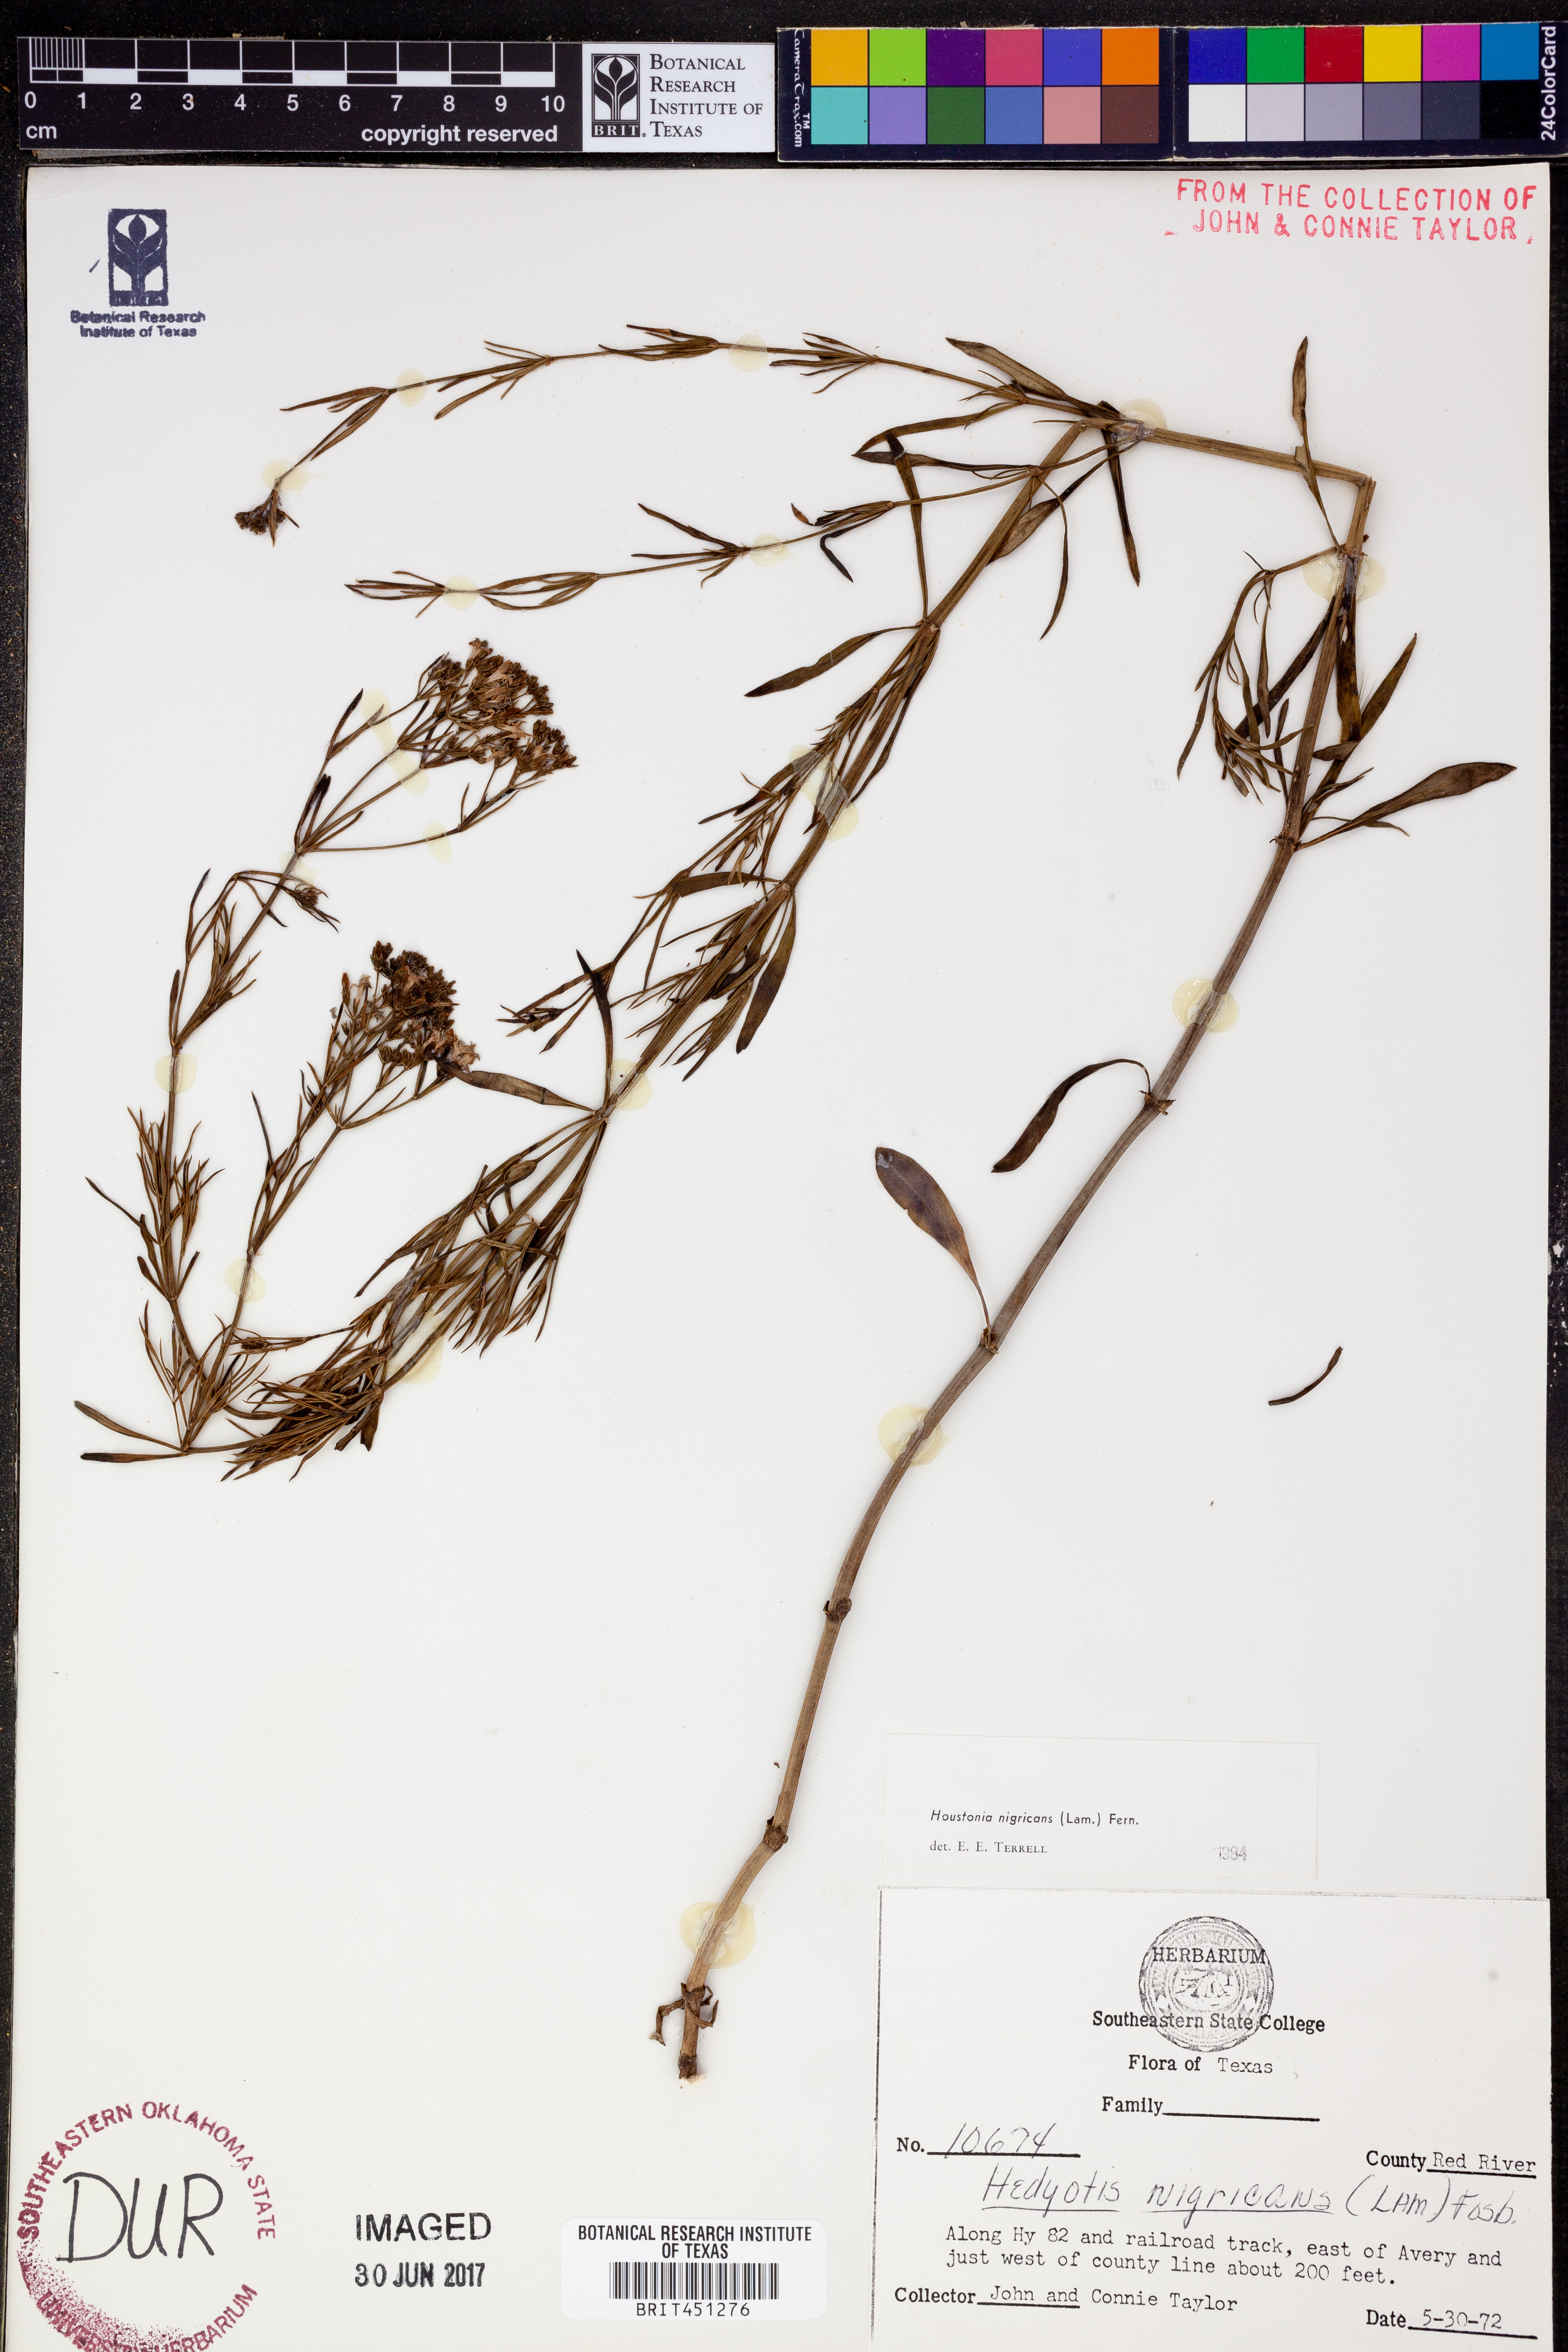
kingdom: Plantae
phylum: Tracheophyta
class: Magnoliopsida
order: Gentianales
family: Rubiaceae
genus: Stenaria
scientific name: Stenaria nigricans
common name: Diamondflowers
